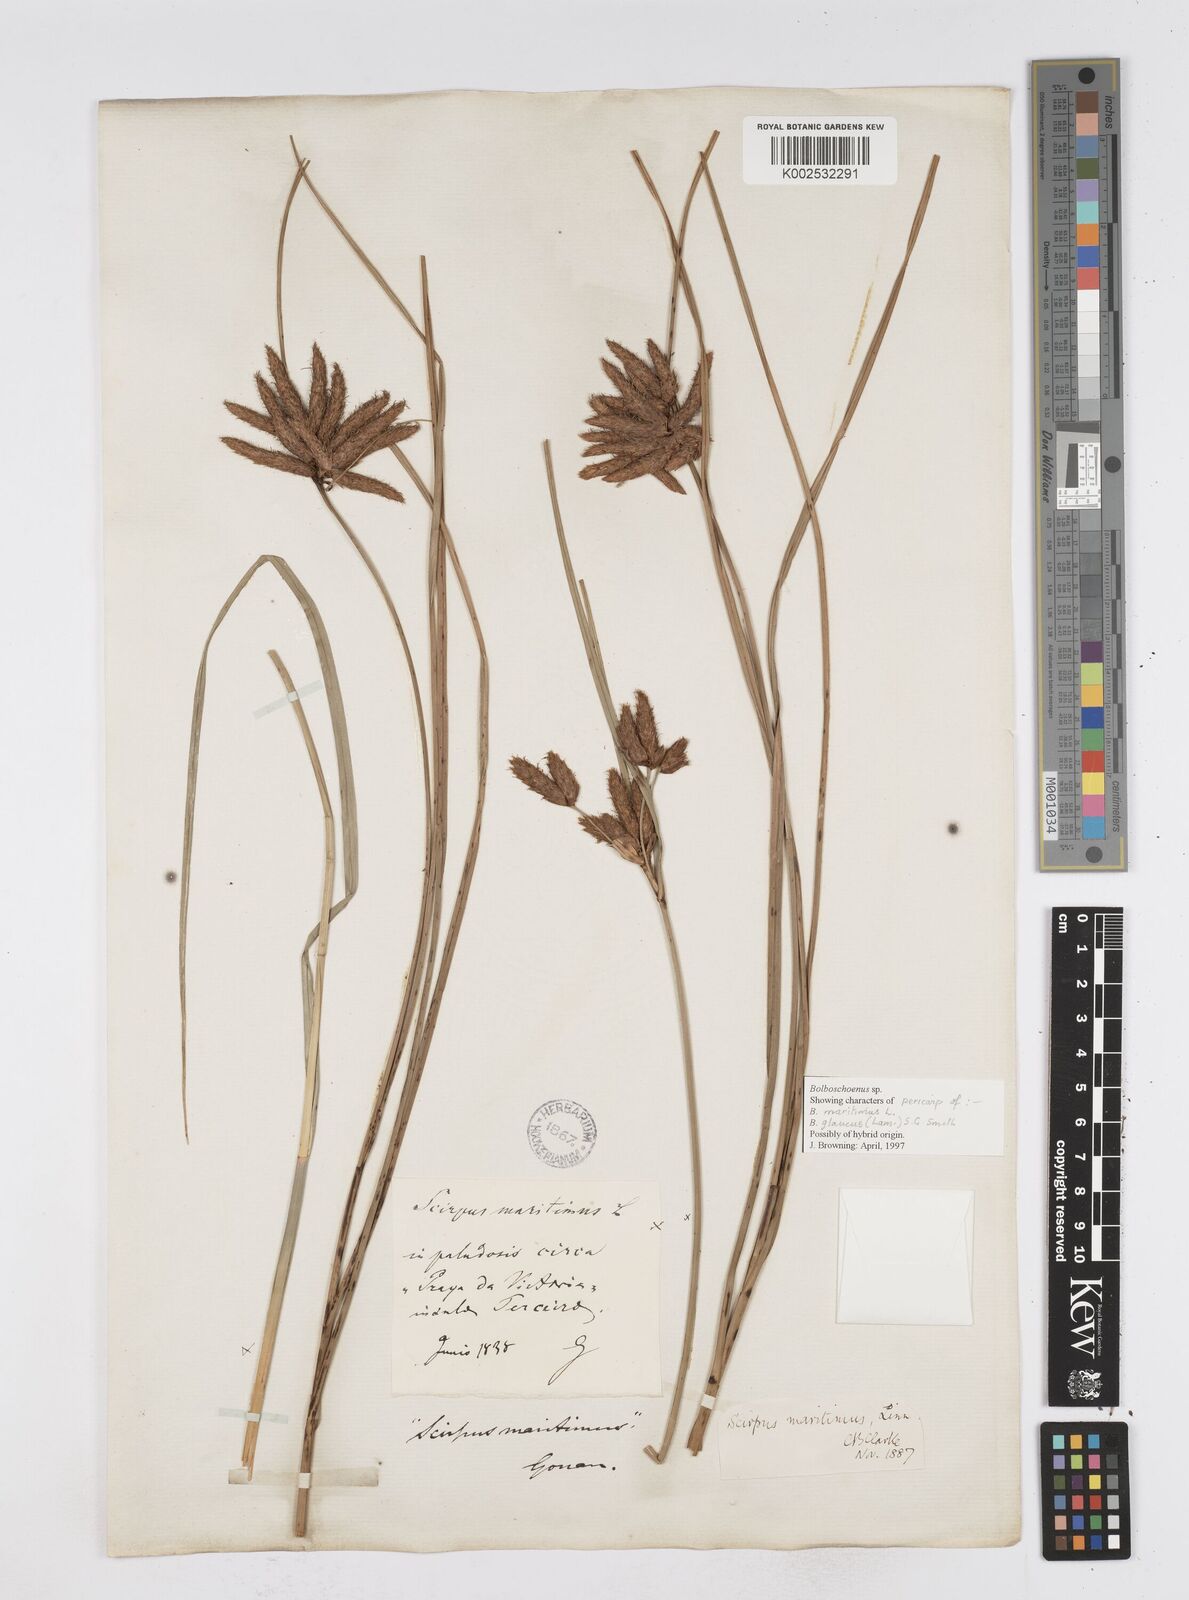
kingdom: Plantae
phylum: Tracheophyta
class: Liliopsida
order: Poales
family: Cyperaceae
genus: Bolboschoenus
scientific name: Bolboschoenus maritimus
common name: Sea club-rush
